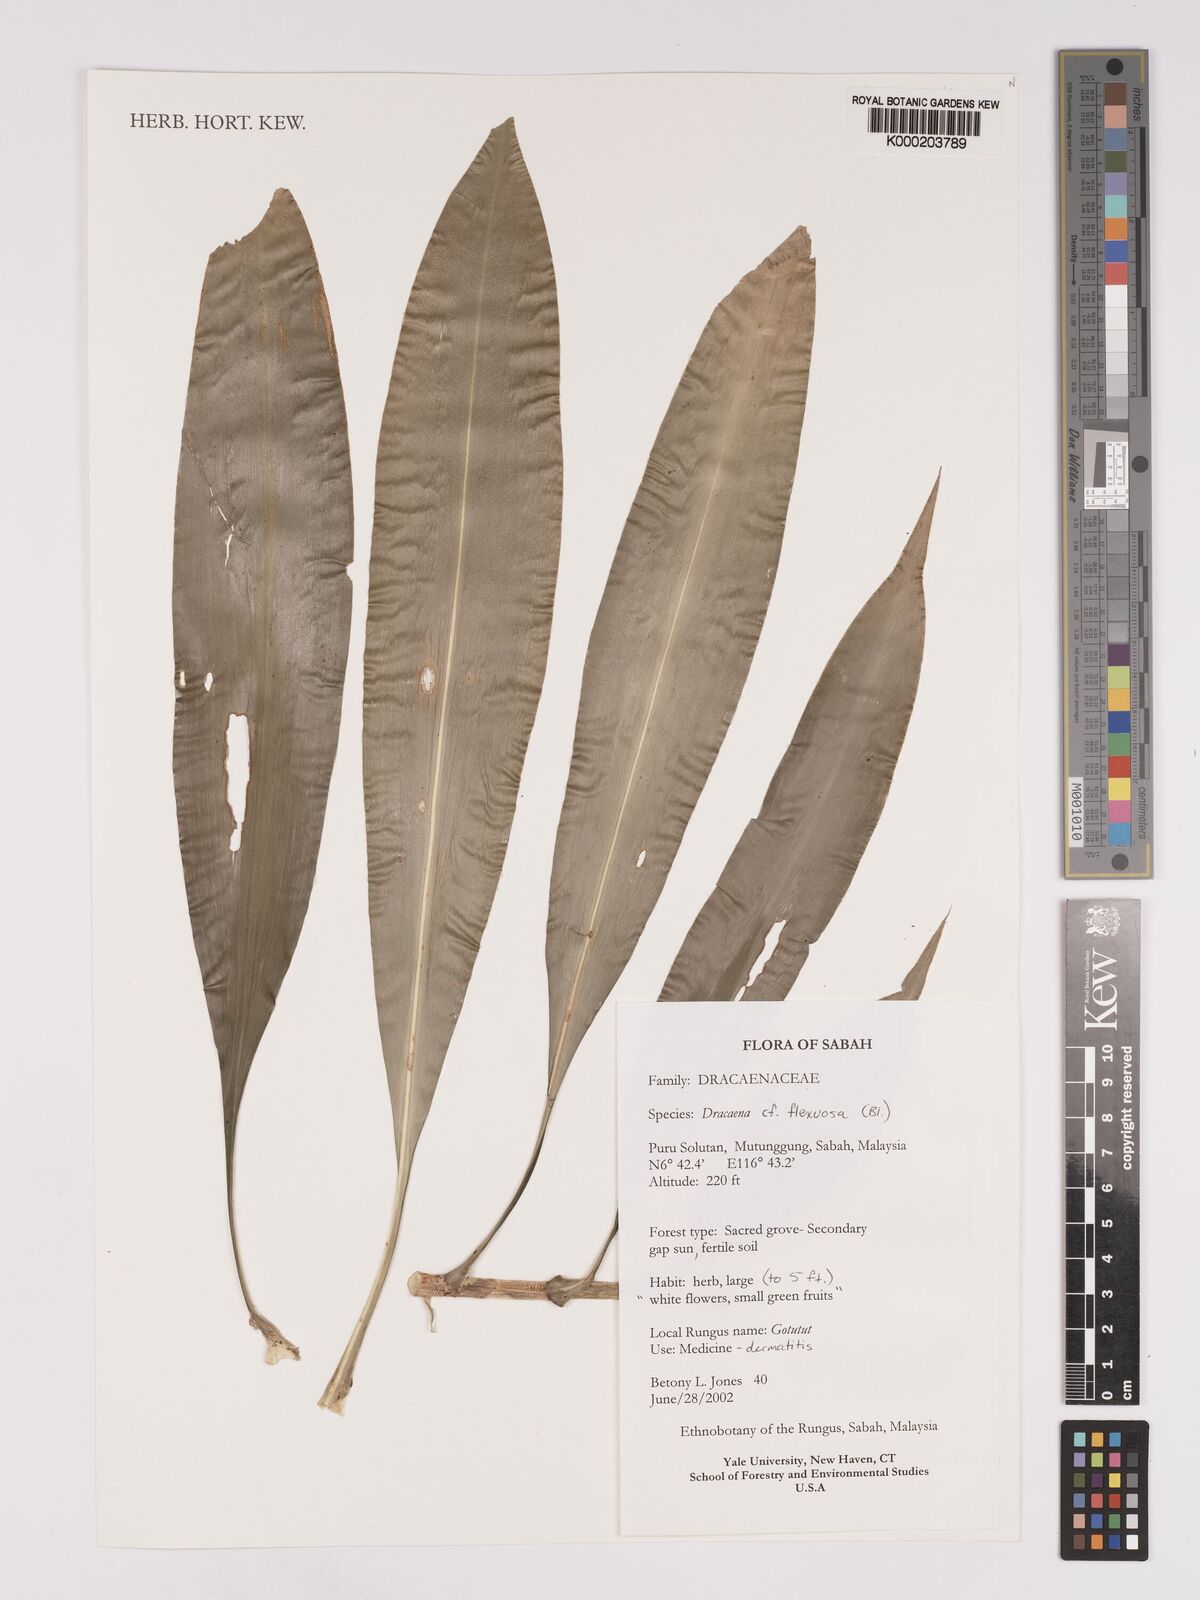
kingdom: Plantae
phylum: Tracheophyta
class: Liliopsida
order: Asparagales
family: Asparagaceae
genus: Dracaena
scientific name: Dracaena reflexa
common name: Song-of-india
